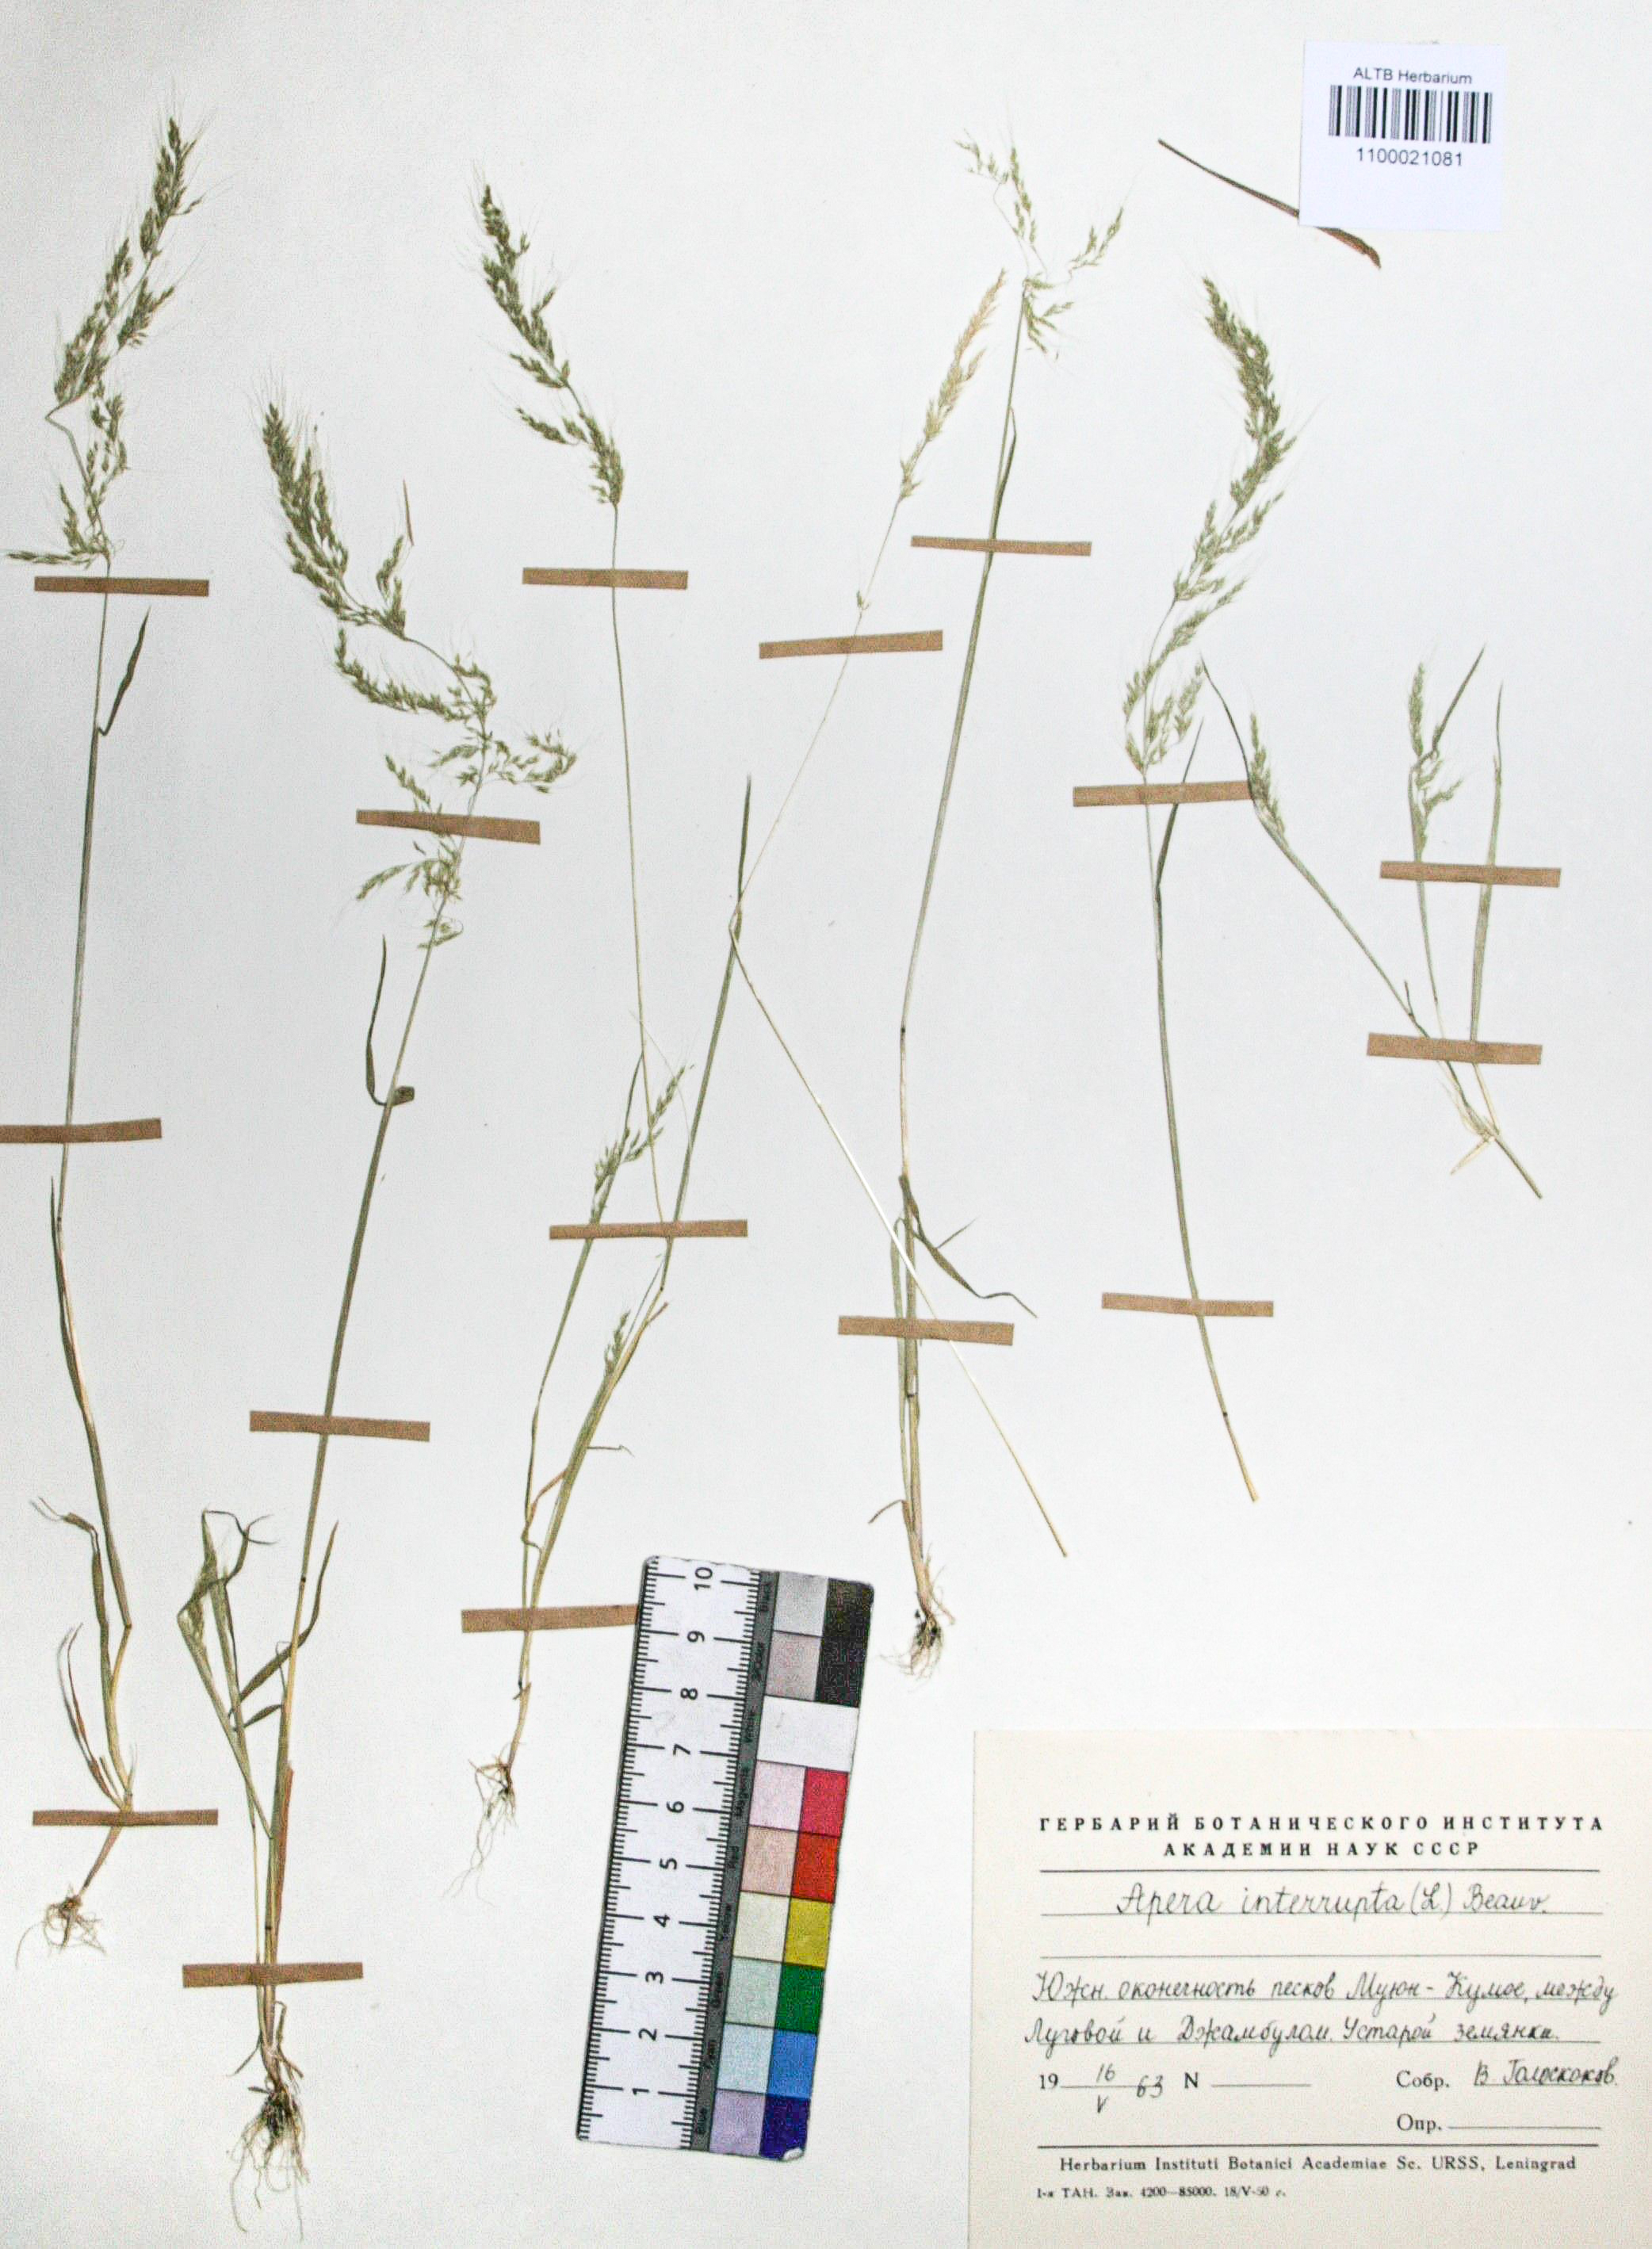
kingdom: Plantae
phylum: Tracheophyta
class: Liliopsida
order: Poales
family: Poaceae
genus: Apera
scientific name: Apera interrupta
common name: Dense silky-bent
